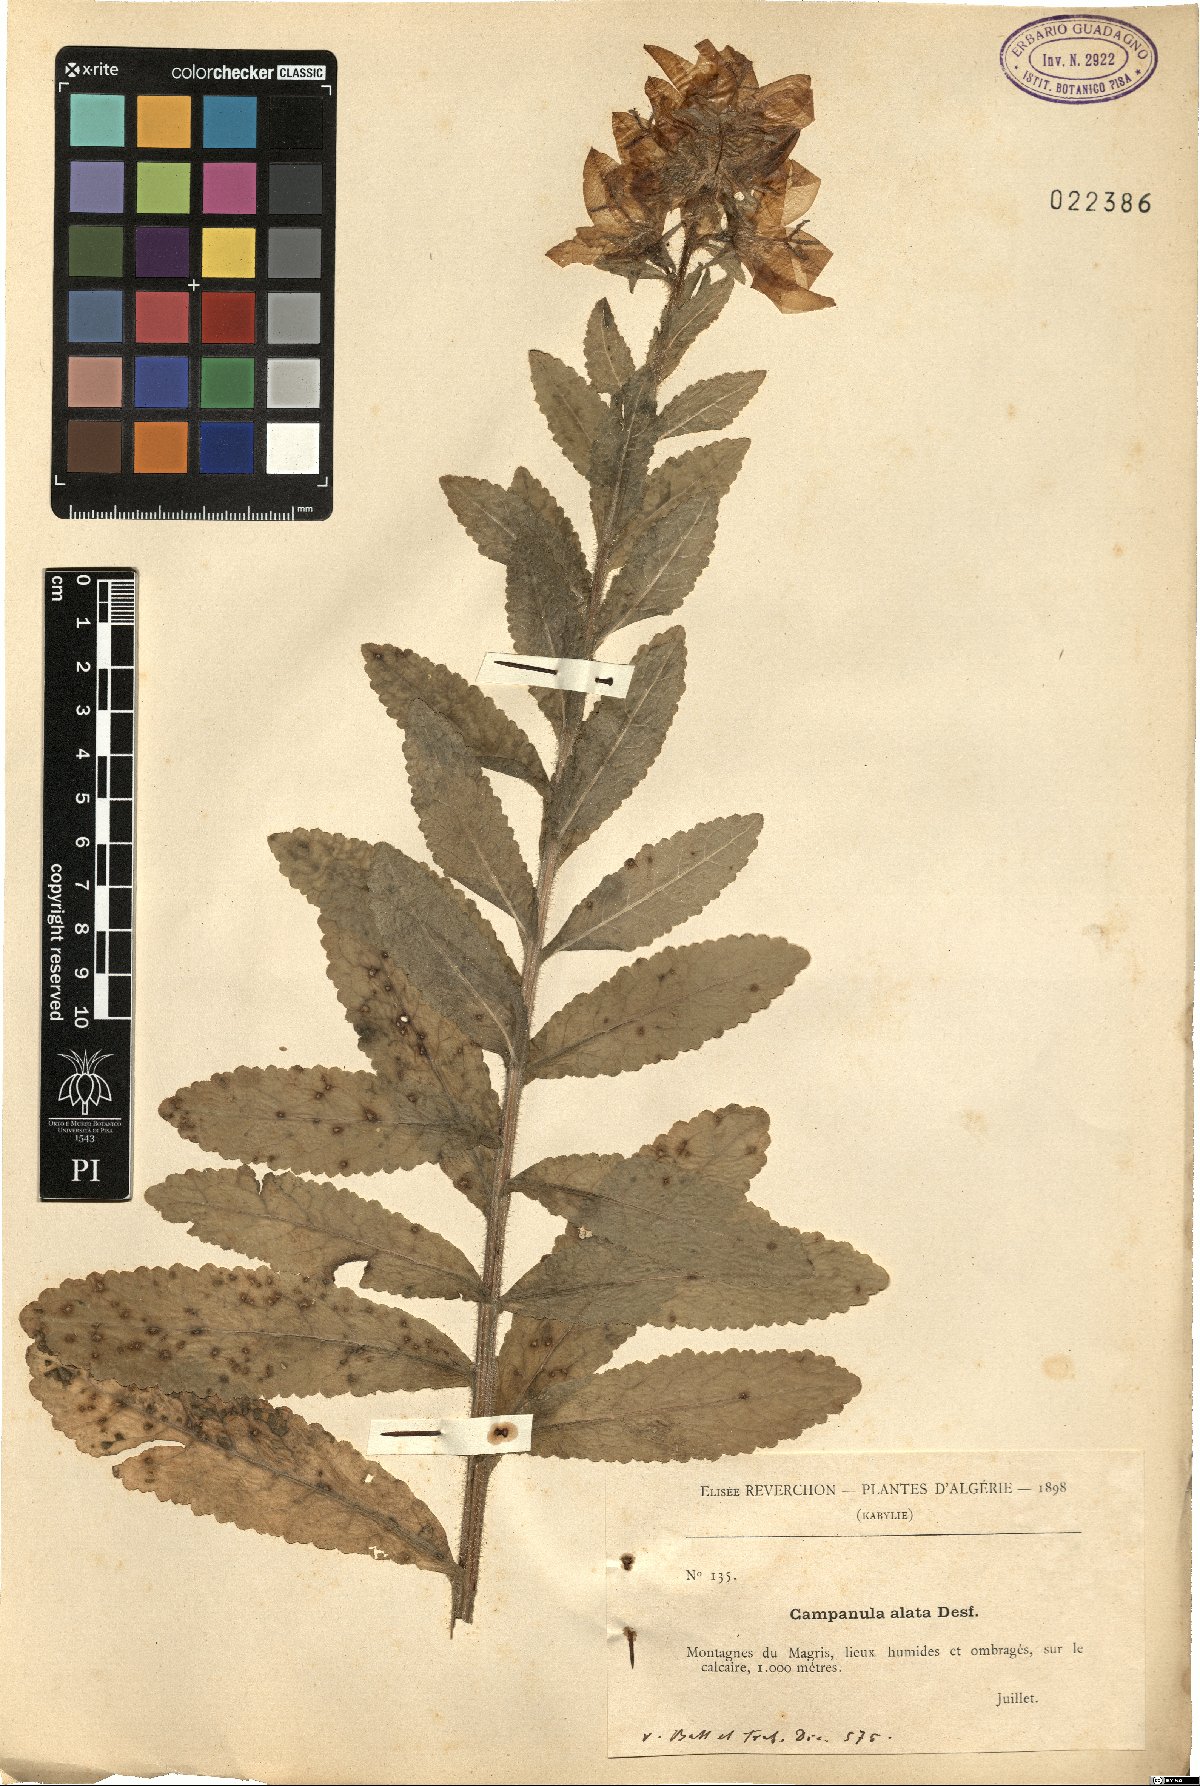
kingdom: Plantae
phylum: Tracheophyta
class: Magnoliopsida
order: Asterales
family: Campanulaceae
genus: Campanula
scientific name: Campanula alata
